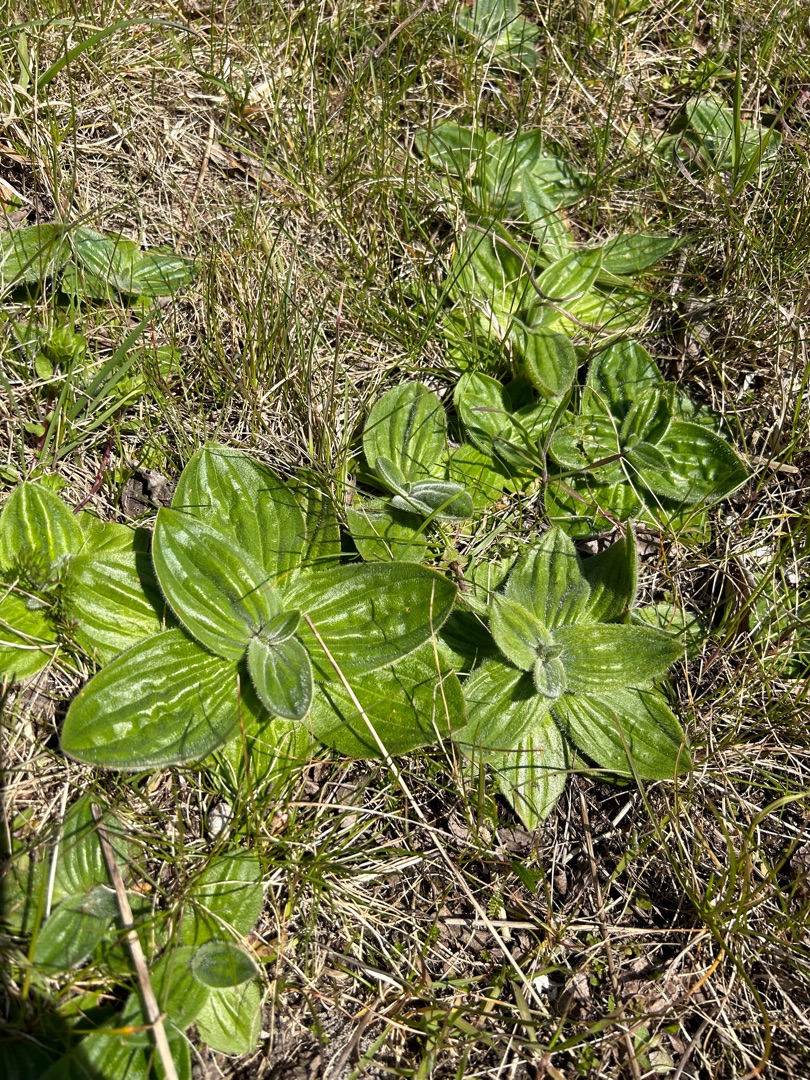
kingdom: Plantae
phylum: Tracheophyta
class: Magnoliopsida
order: Lamiales
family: Plantaginaceae
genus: Plantago
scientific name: Plantago media
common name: Dunet vejbred
